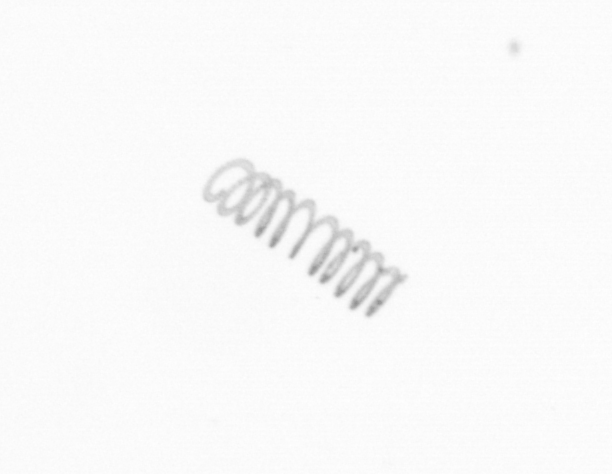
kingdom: Chromista
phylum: Ochrophyta
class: Bacillariophyceae
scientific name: Bacillariophyceae
